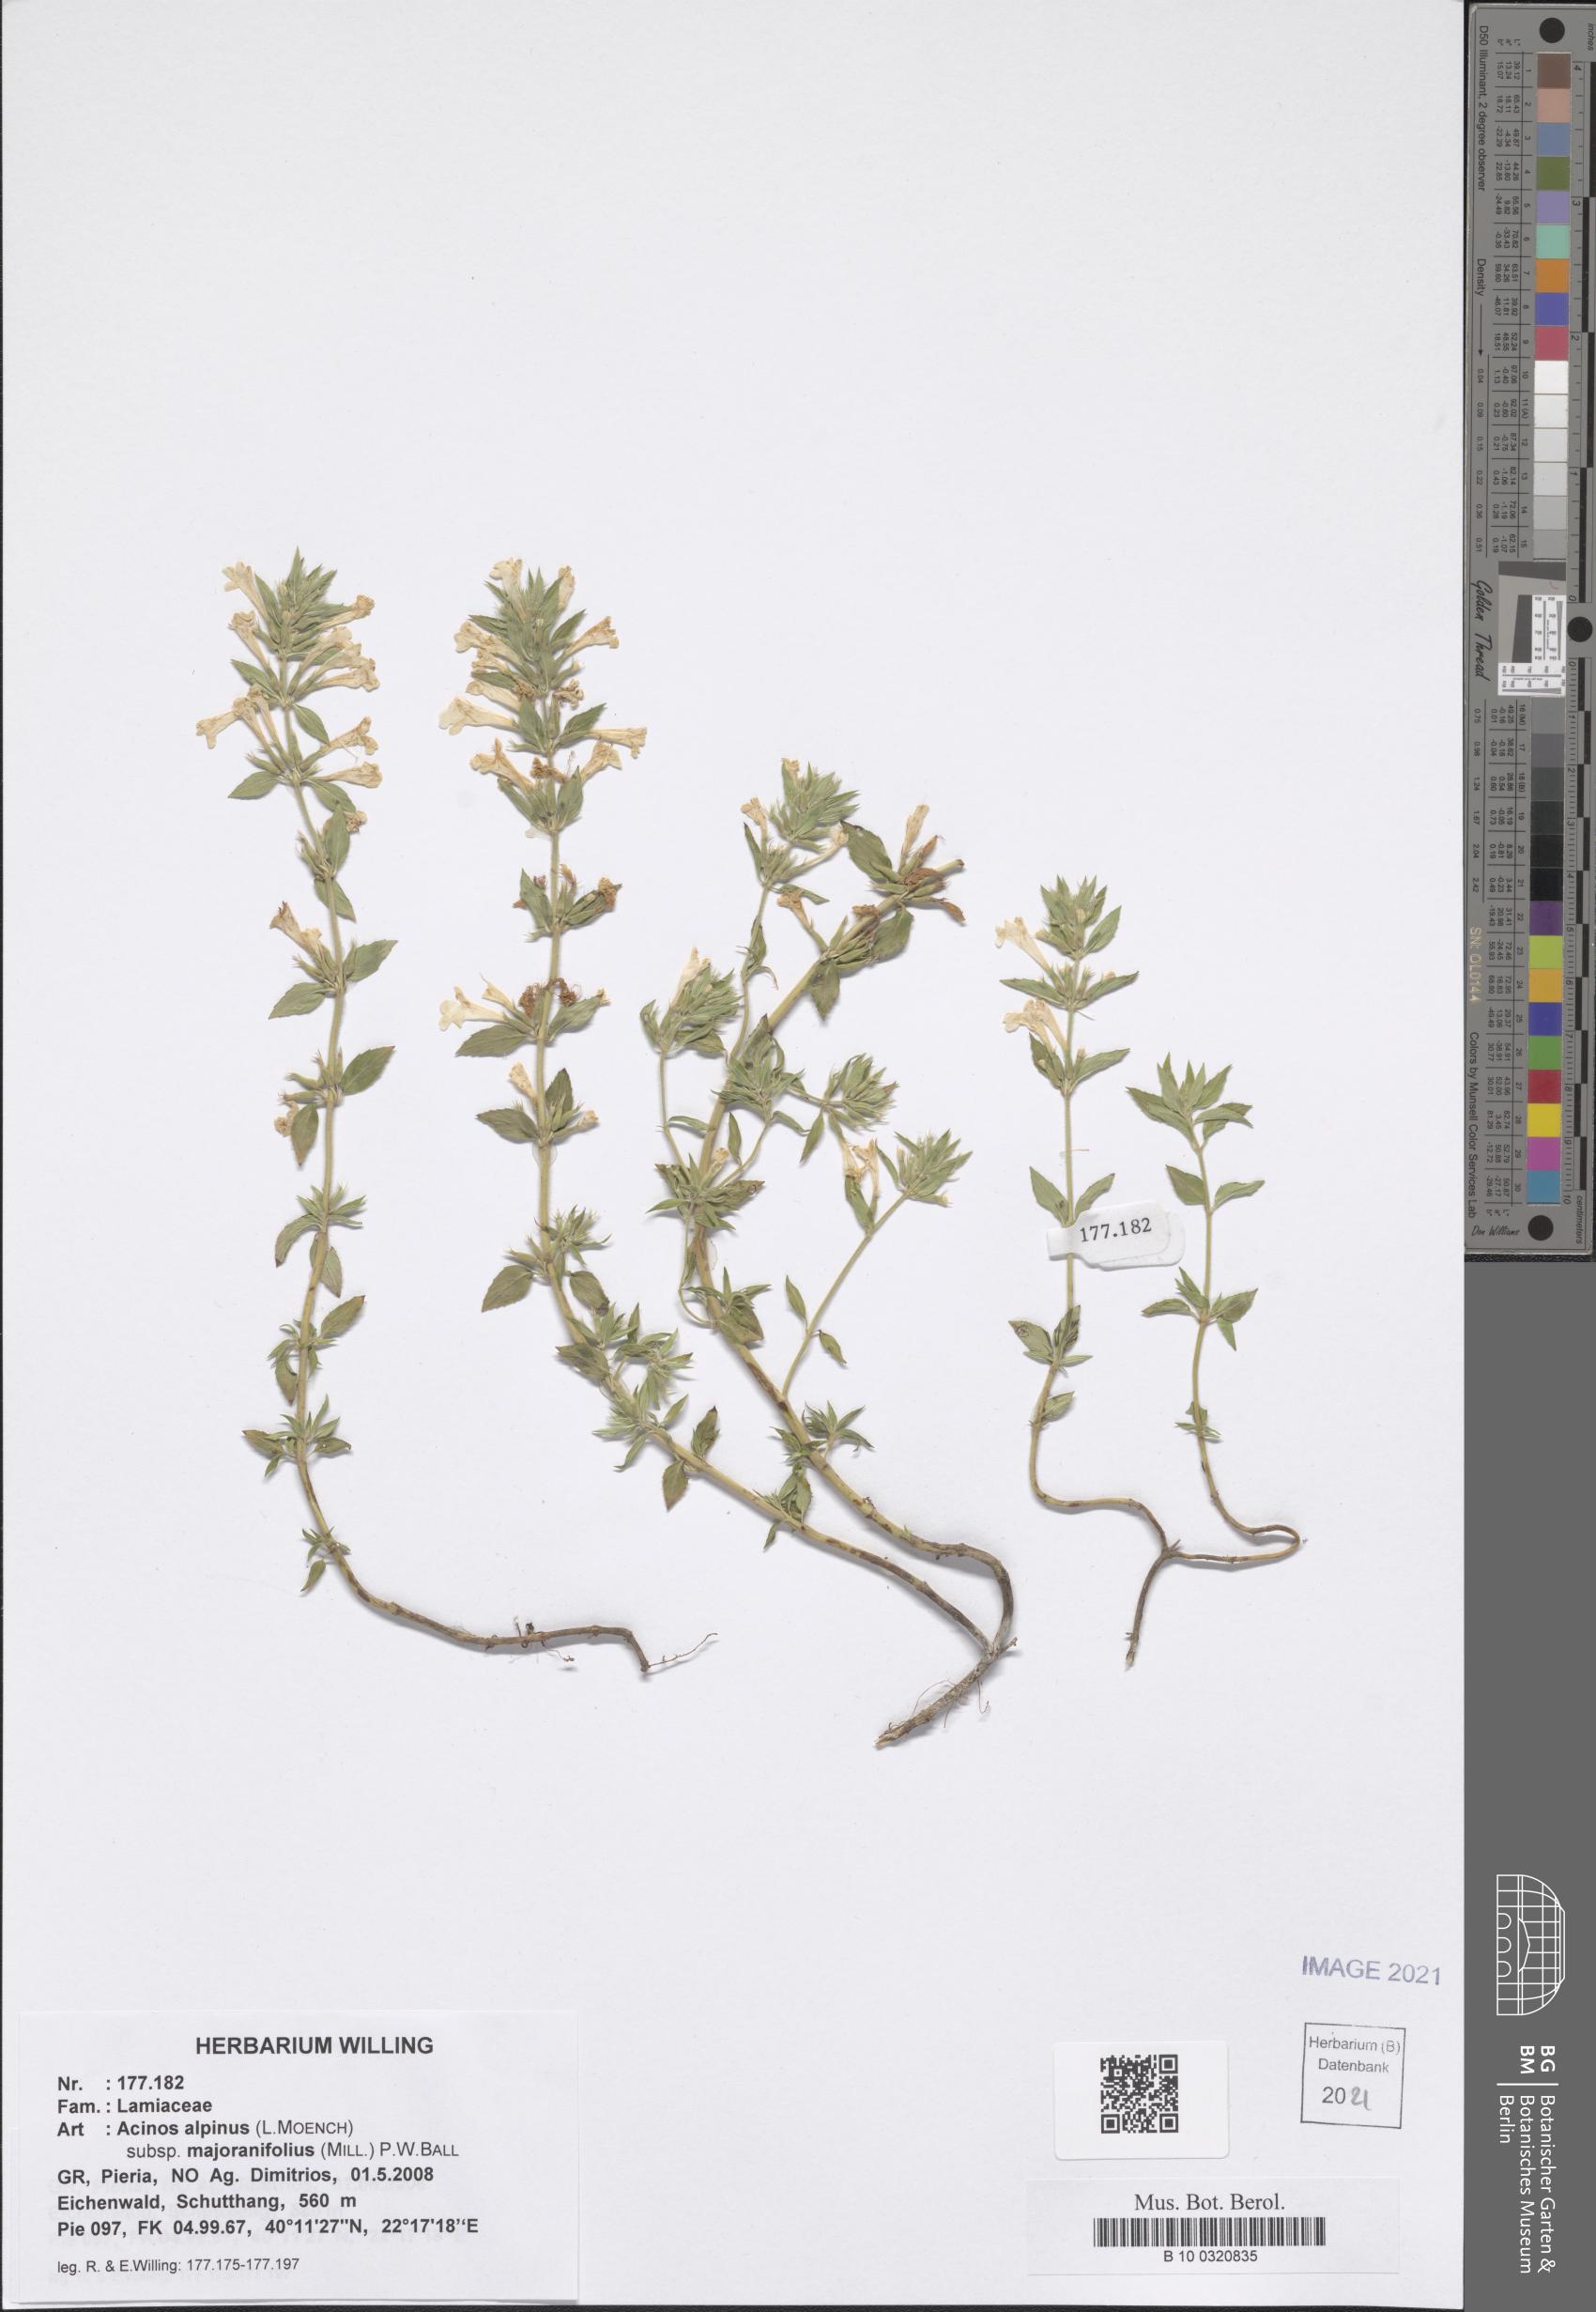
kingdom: Plantae
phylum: Tracheophyta
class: Magnoliopsida
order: Lamiales
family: Lamiaceae
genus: Clinopodium
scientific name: Clinopodium alpinum
